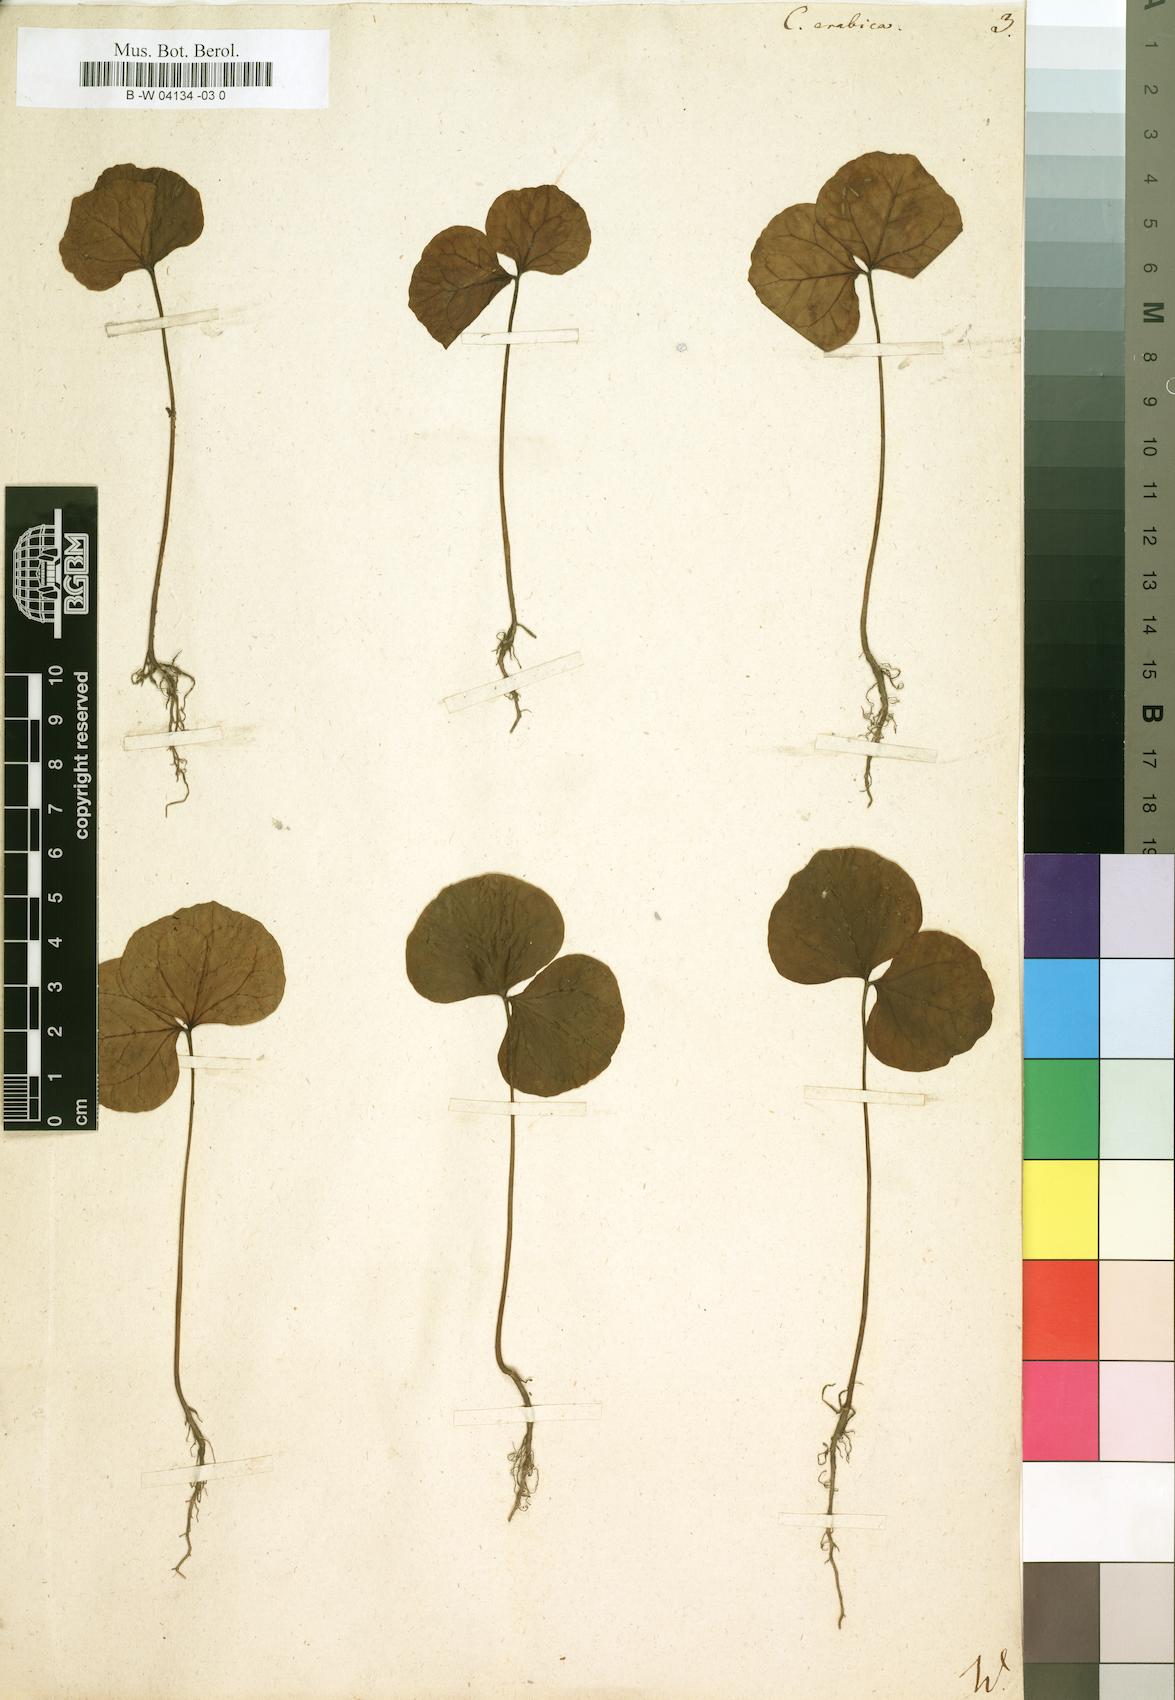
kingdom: Plantae
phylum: Tracheophyta
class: Magnoliopsida
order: Gentianales
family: Rubiaceae
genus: Coffea
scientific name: Coffea arabica
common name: Coffee
